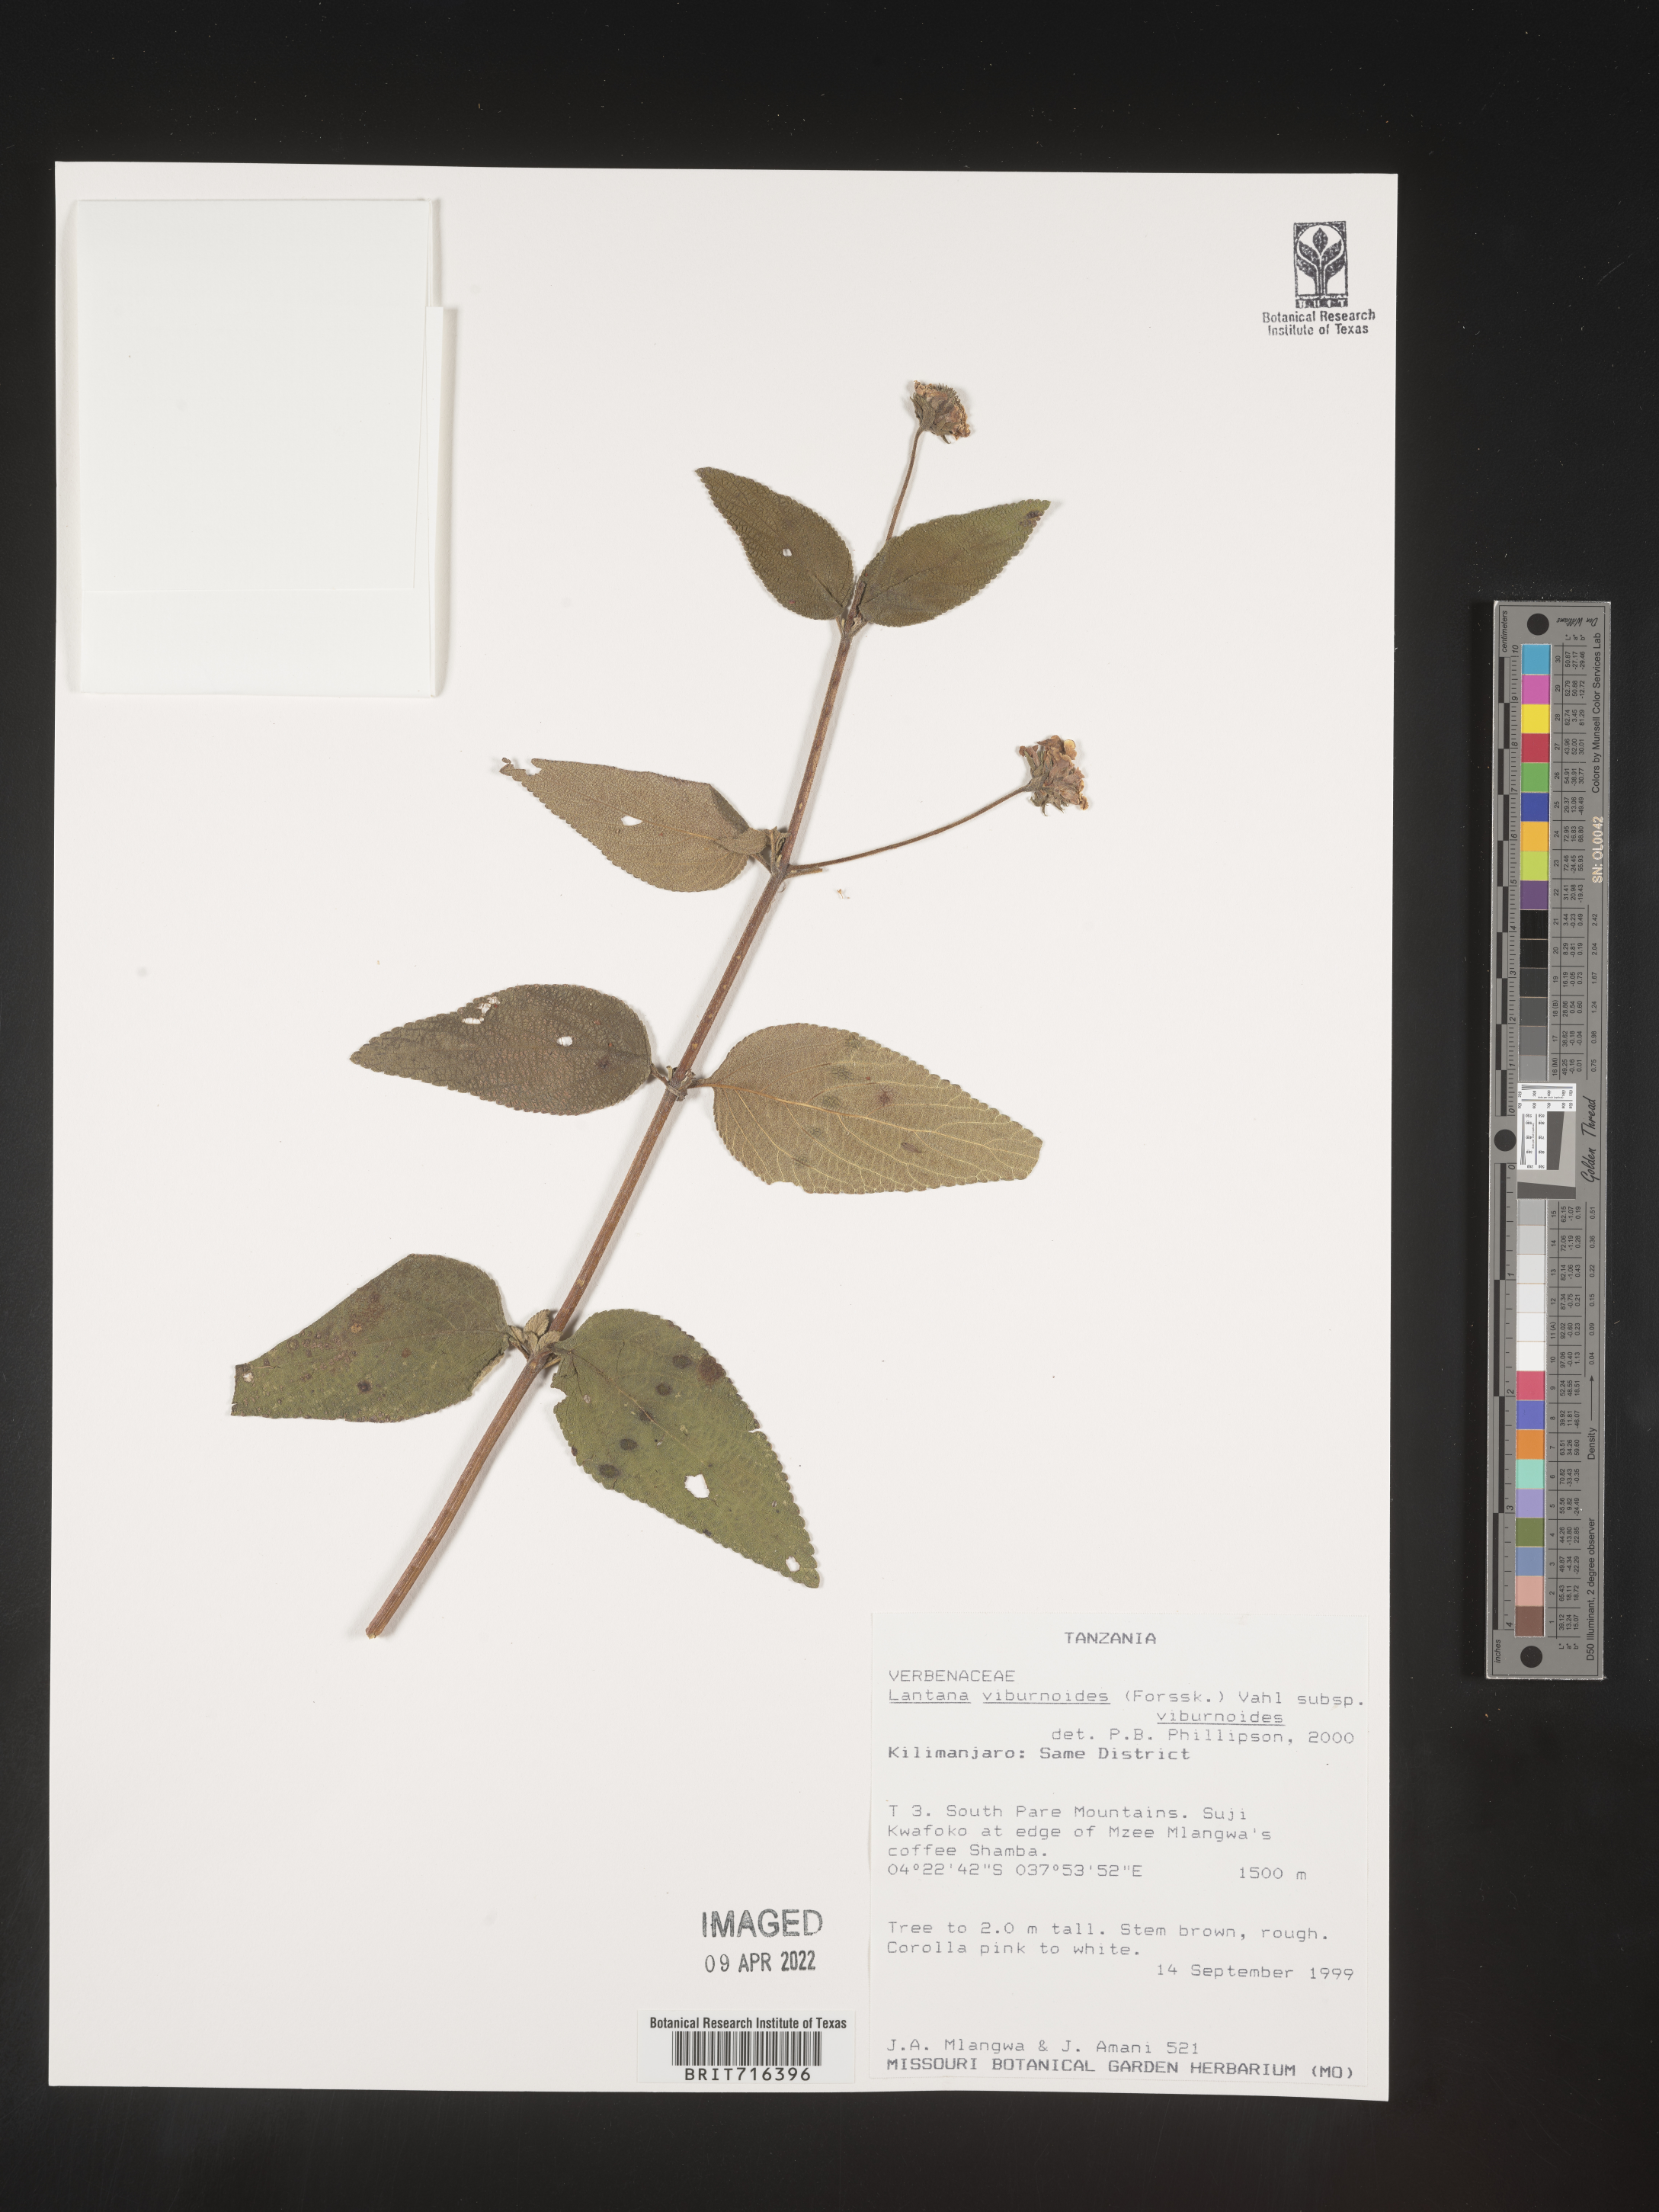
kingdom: Plantae
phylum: Tracheophyta
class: Magnoliopsida
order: Lamiales
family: Verbenaceae
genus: Lantana
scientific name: Lantana
